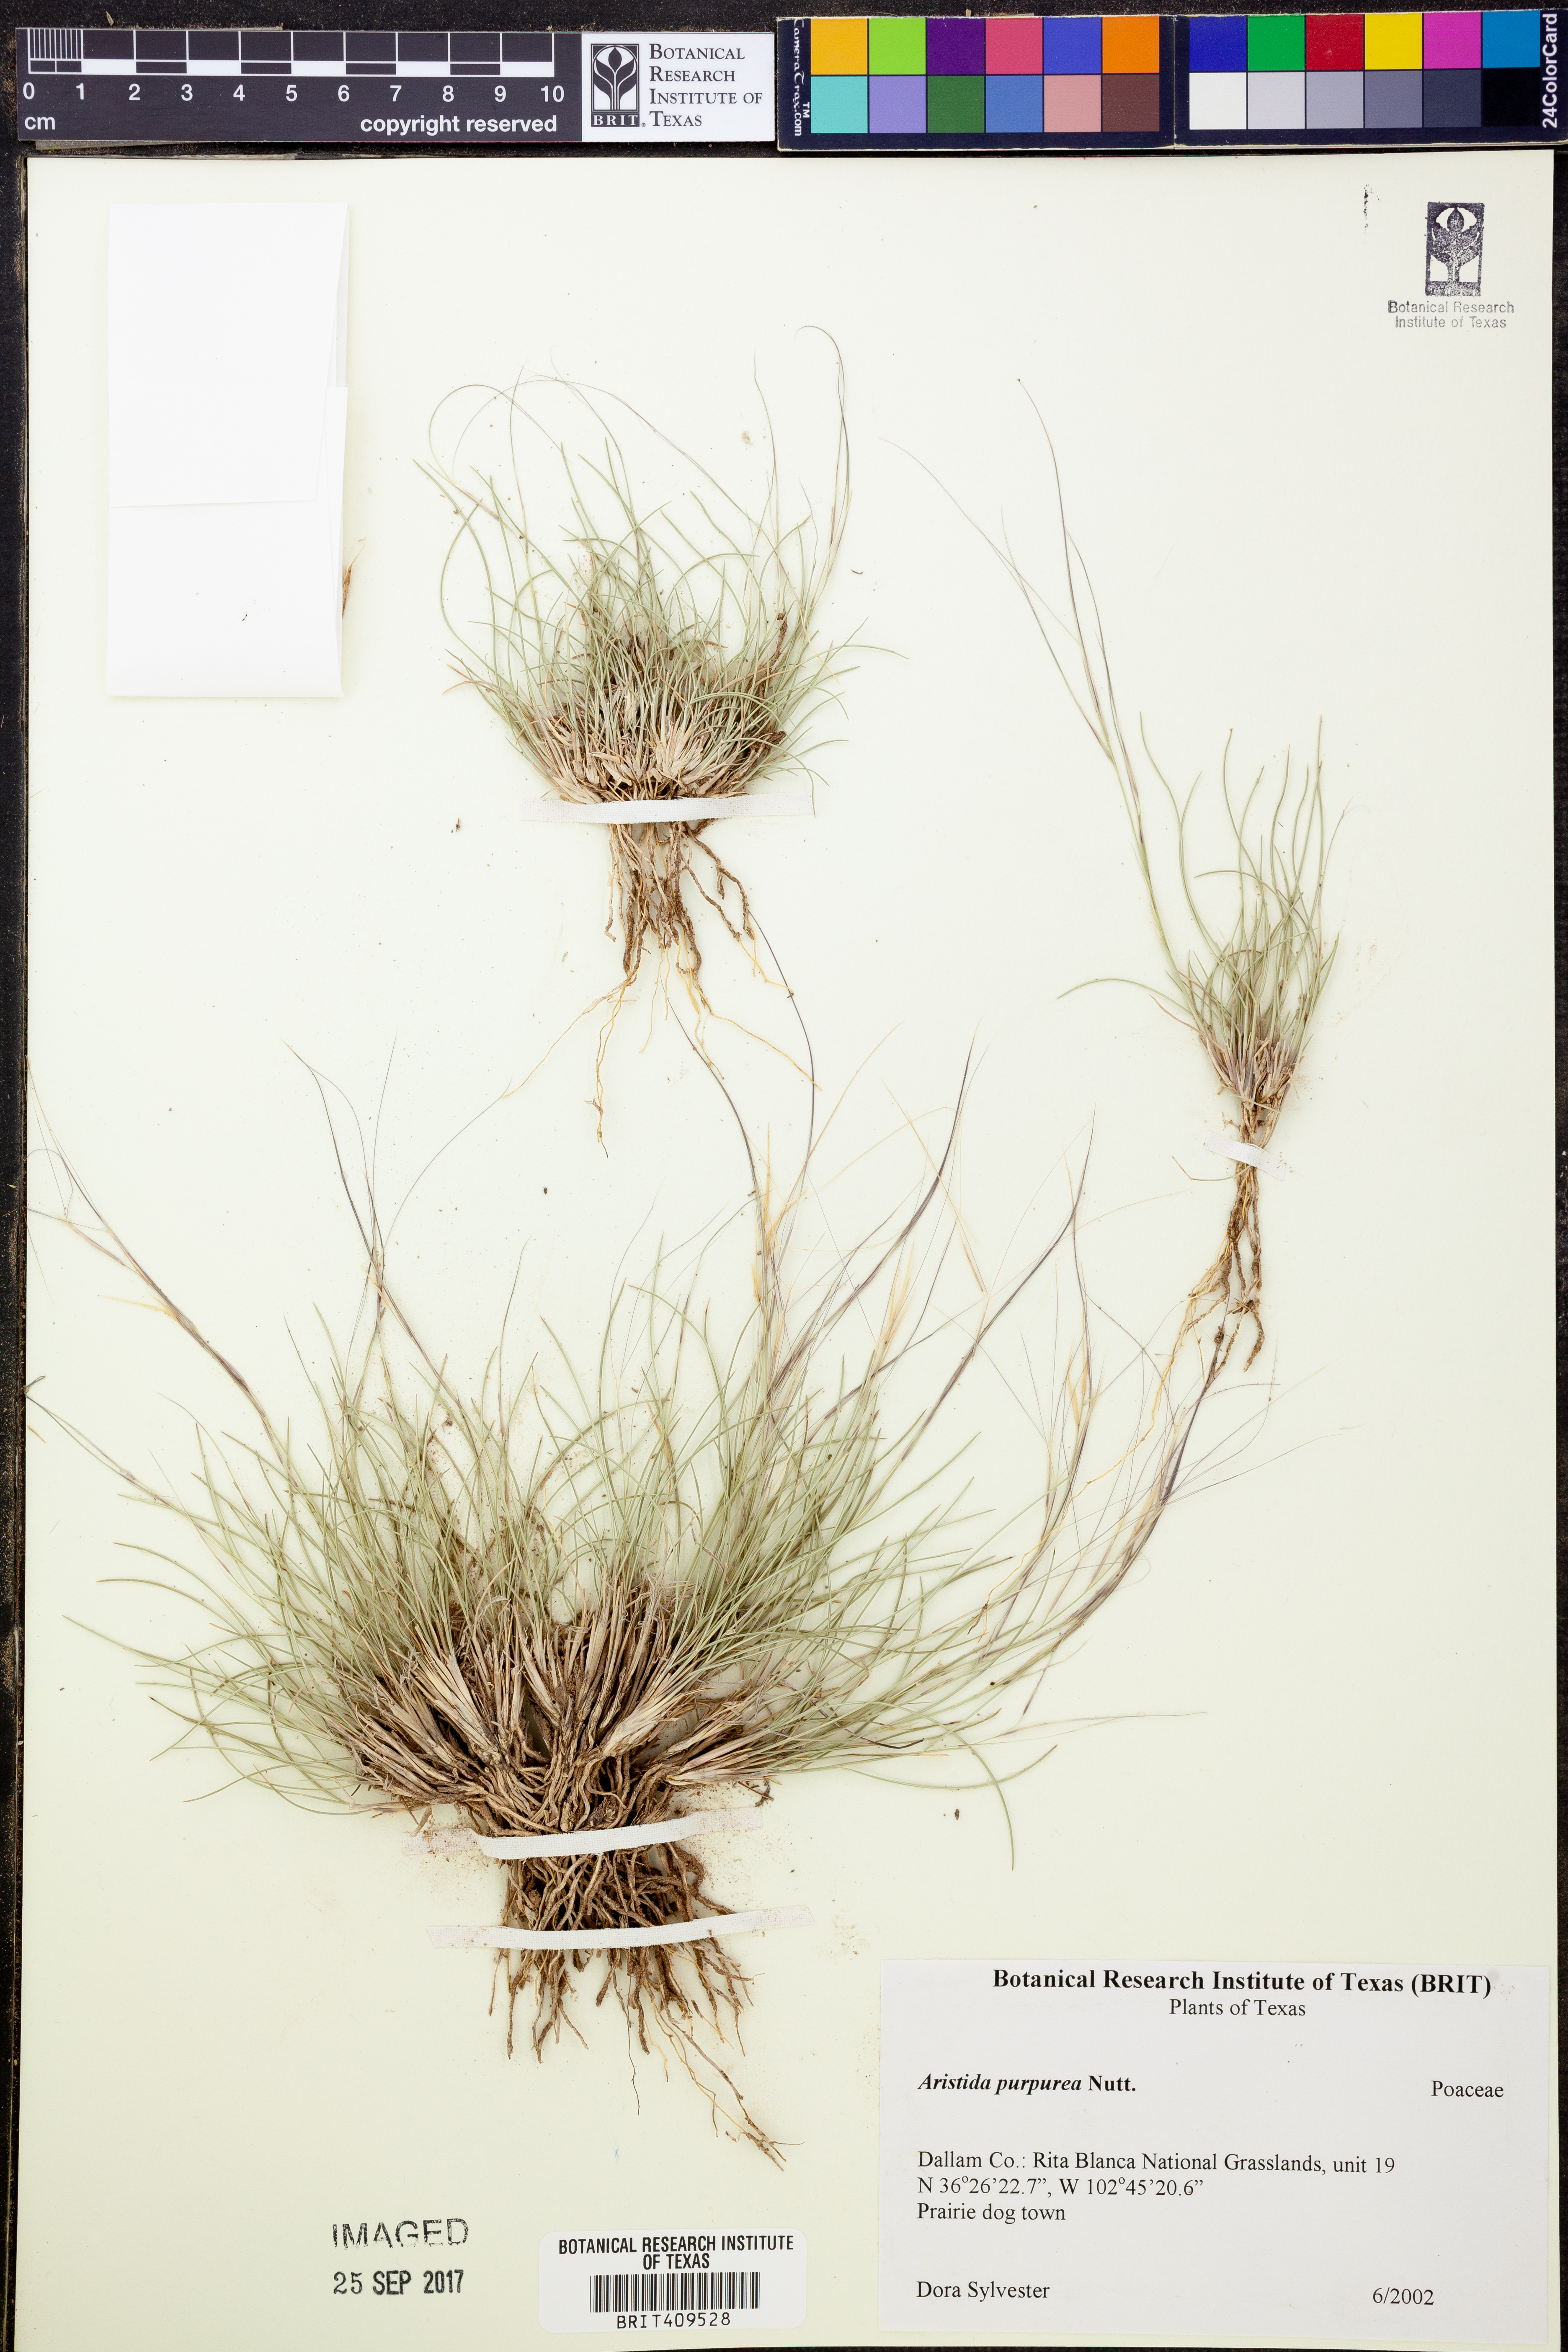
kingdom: Plantae
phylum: Tracheophyta
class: Liliopsida
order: Poales
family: Poaceae
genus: Aristida
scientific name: Aristida purpurea
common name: Purple threeawn
